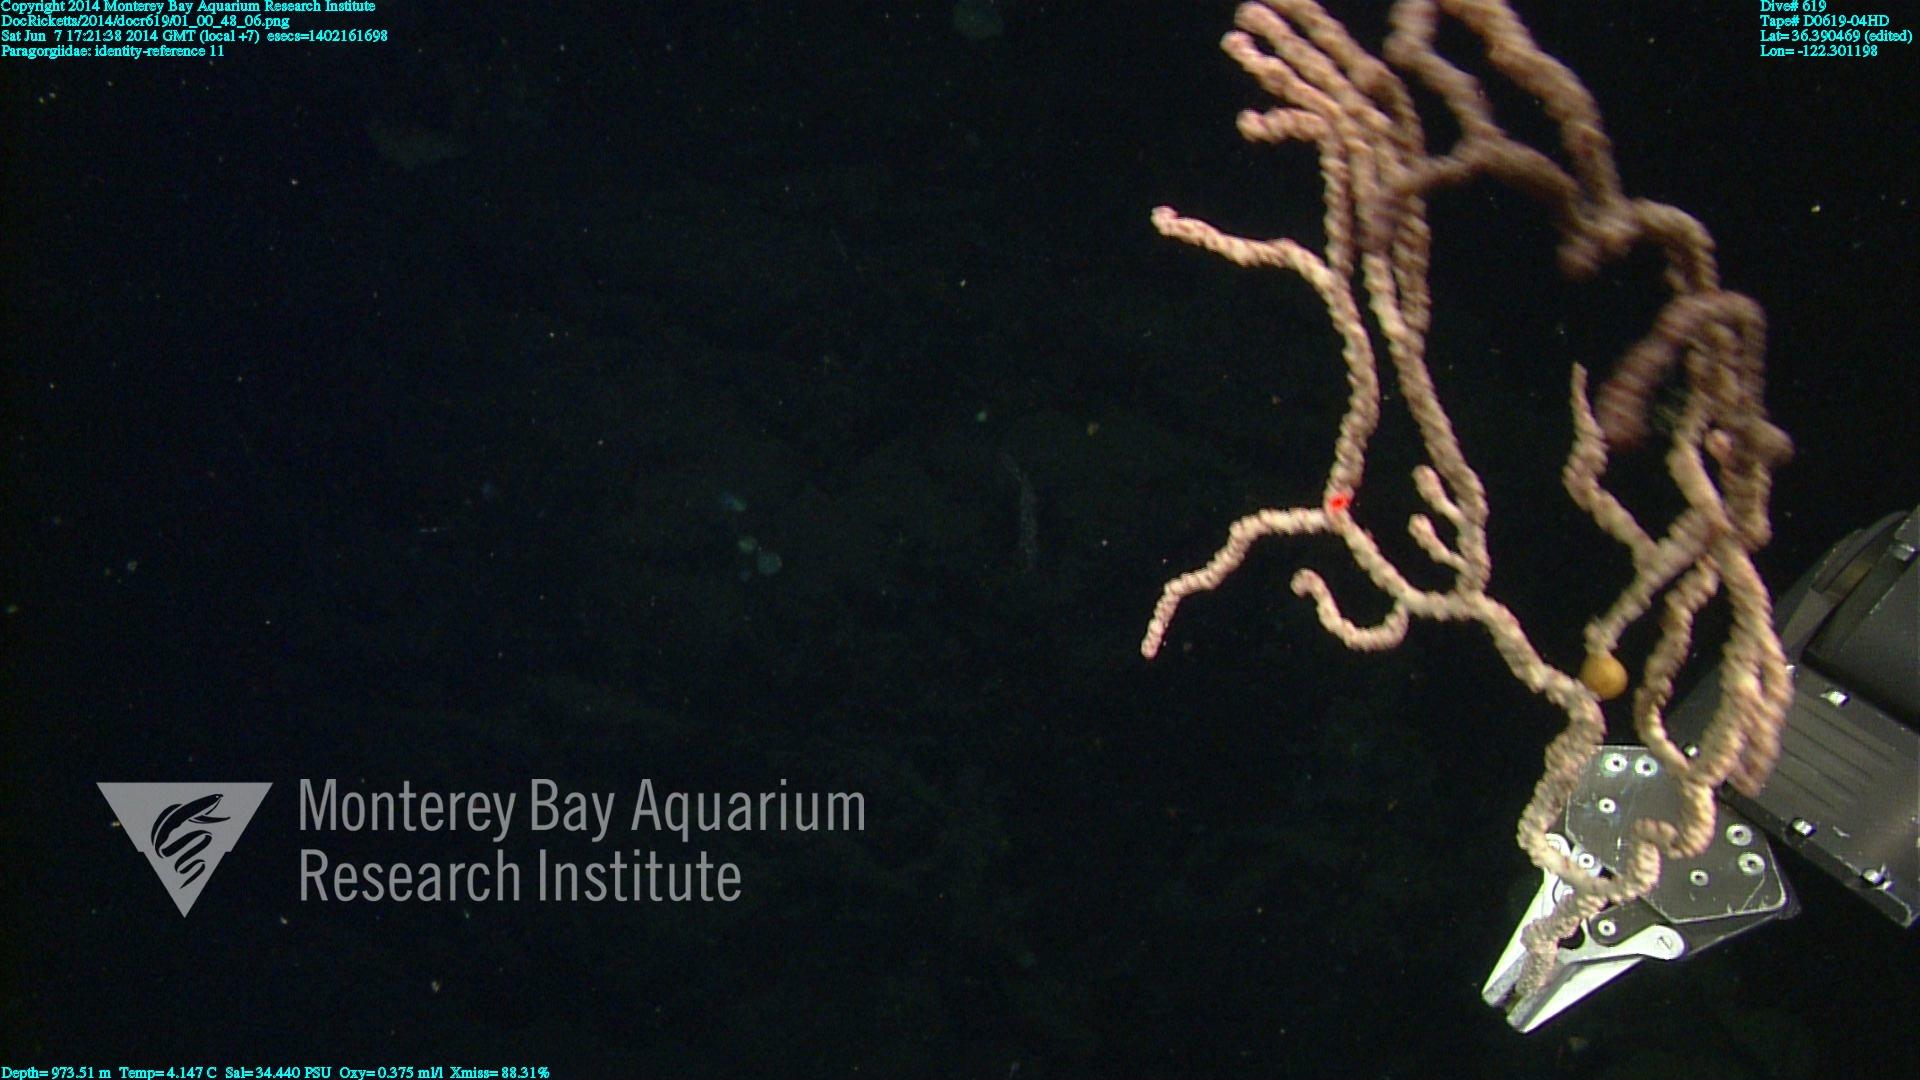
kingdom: Animalia
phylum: Cnidaria
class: Anthozoa
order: Scleralcyonacea
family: Coralliidae
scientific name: Coralliidae
